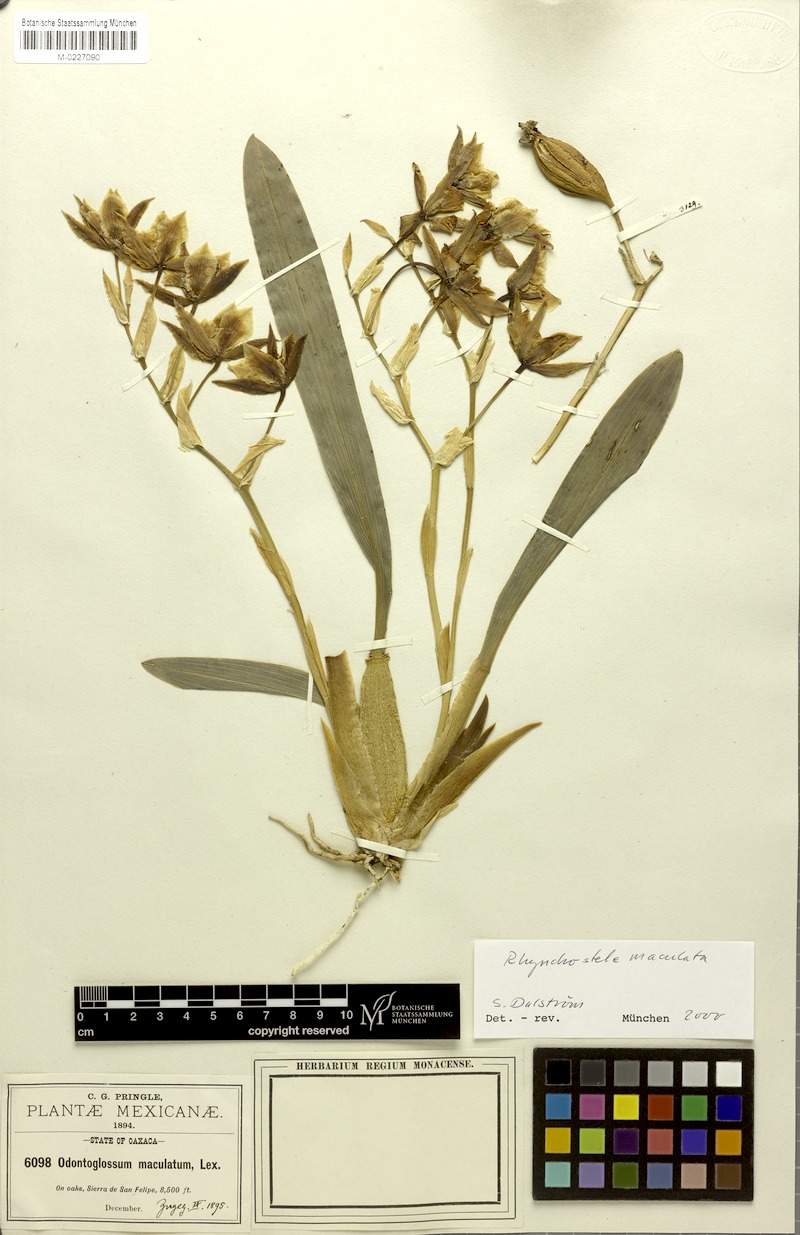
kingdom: Plantae
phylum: Tracheophyta
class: Liliopsida
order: Asparagales
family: Orchidaceae
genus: Rhynchostele
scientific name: Rhynchostele maculata
